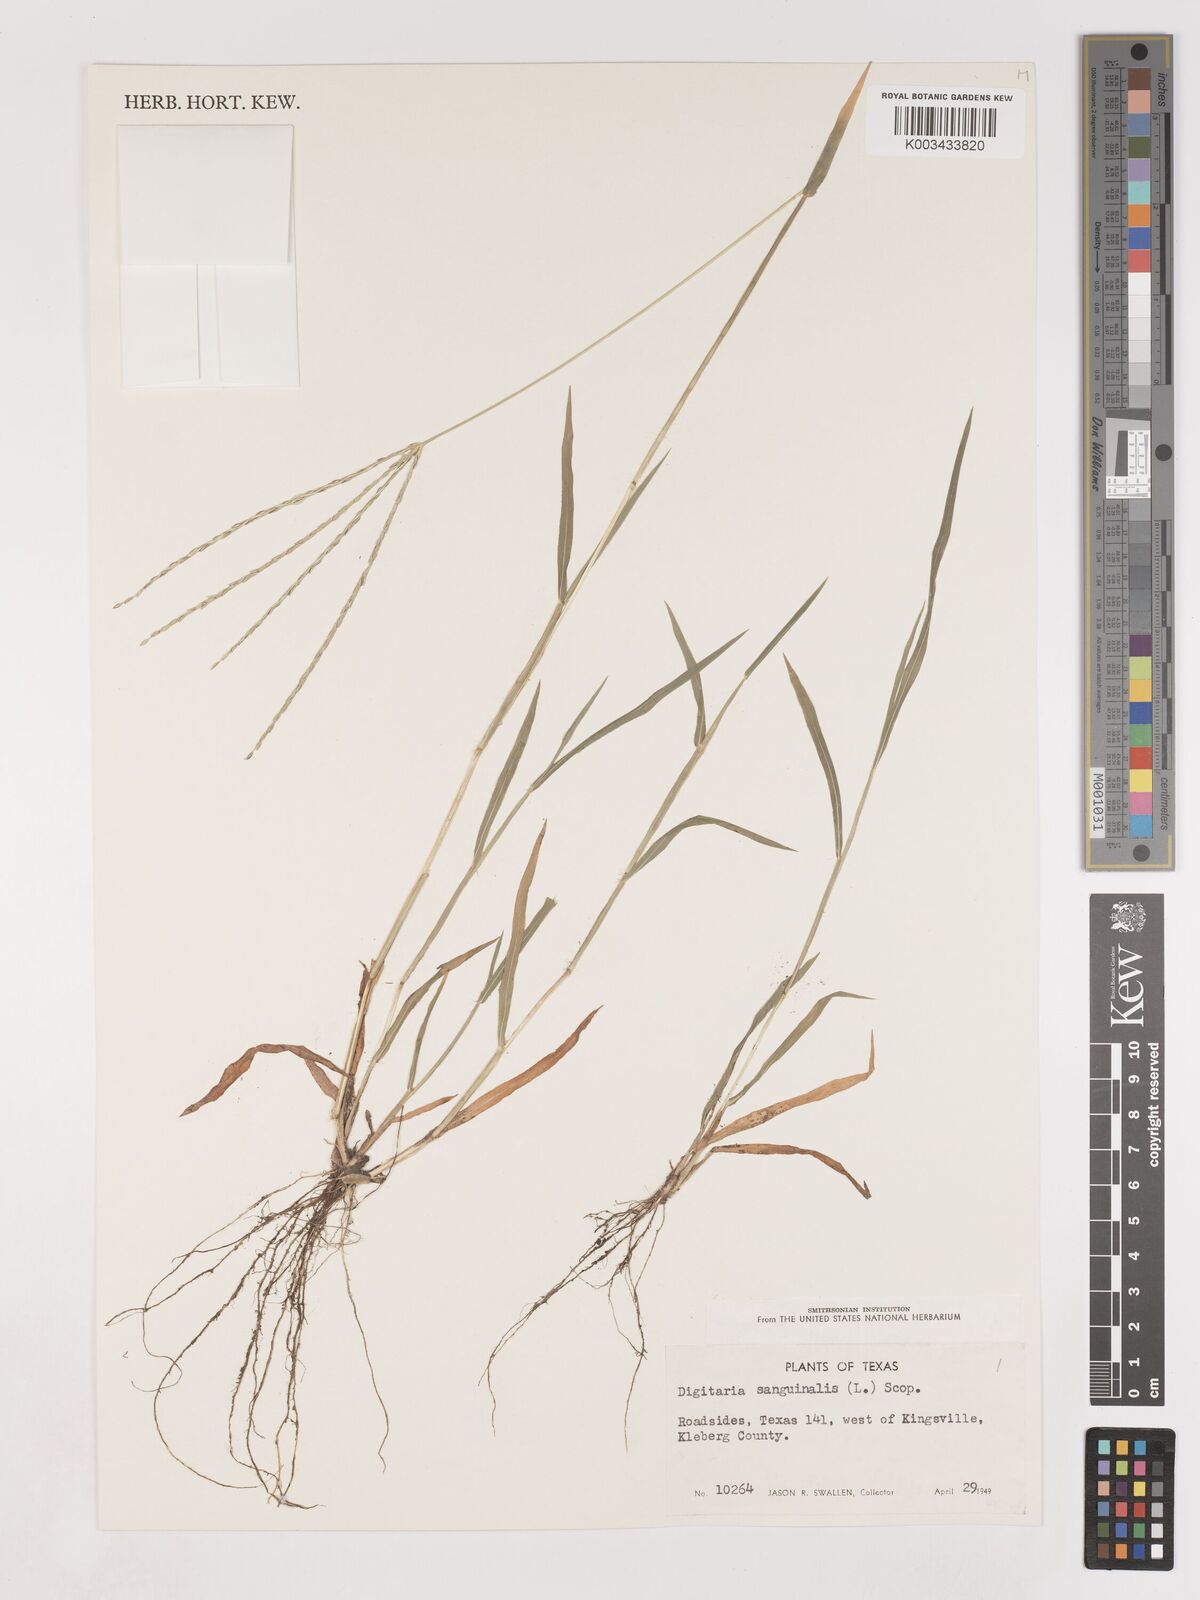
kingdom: Plantae
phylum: Tracheophyta
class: Liliopsida
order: Poales
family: Poaceae
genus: Digitaria
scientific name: Digitaria ciliaris
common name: Tropical finger-grass
